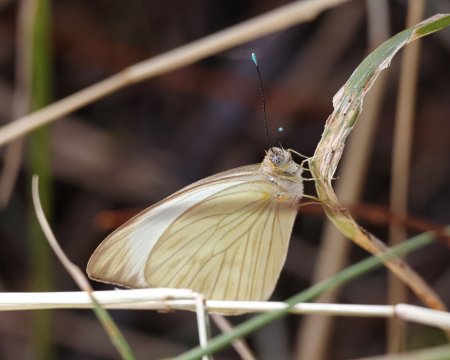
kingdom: Animalia
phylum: Arthropoda
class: Insecta
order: Lepidoptera
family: Pieridae
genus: Ascia
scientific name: Ascia monuste
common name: Great Southern White
